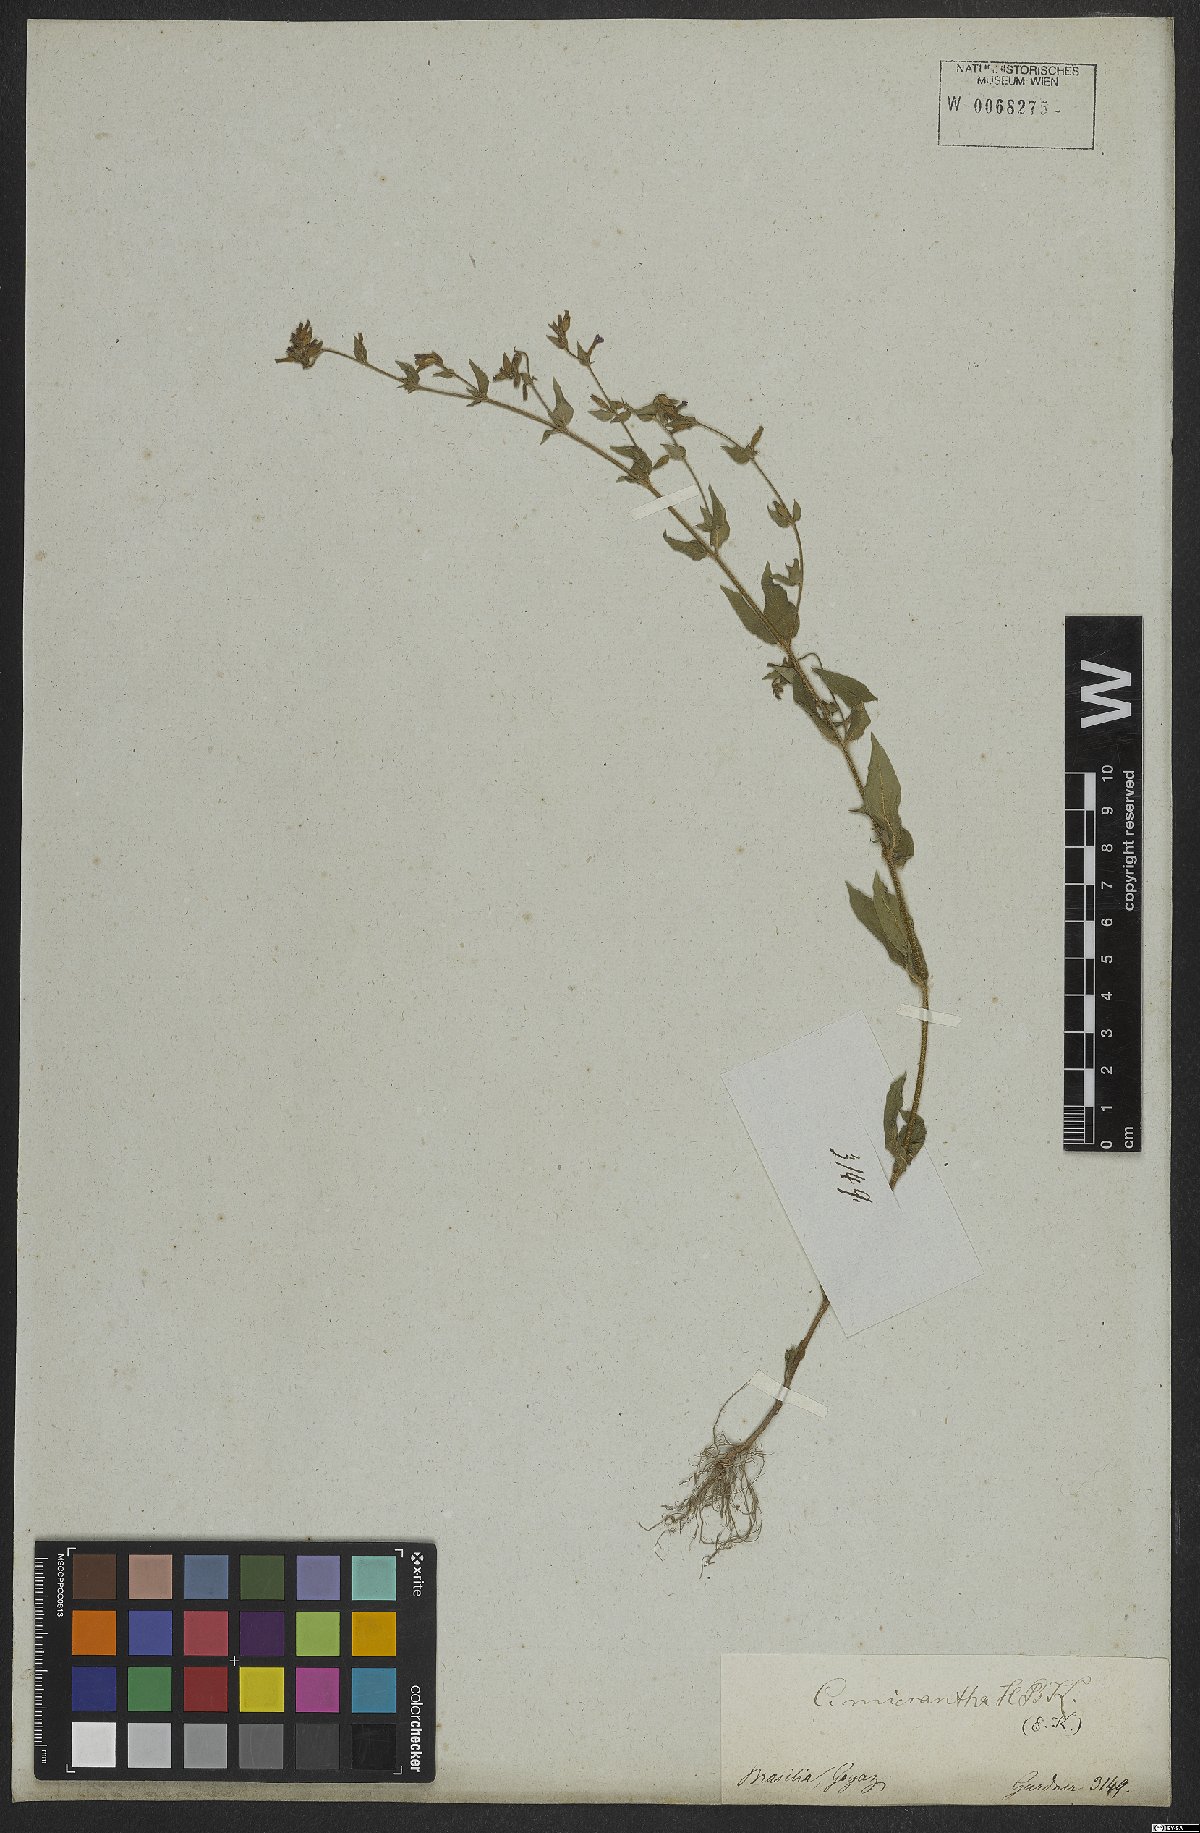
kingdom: Plantae
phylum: Tracheophyta
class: Magnoliopsida
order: Myrtales
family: Lythraceae
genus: Cuphea
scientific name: Cuphea micrantha
